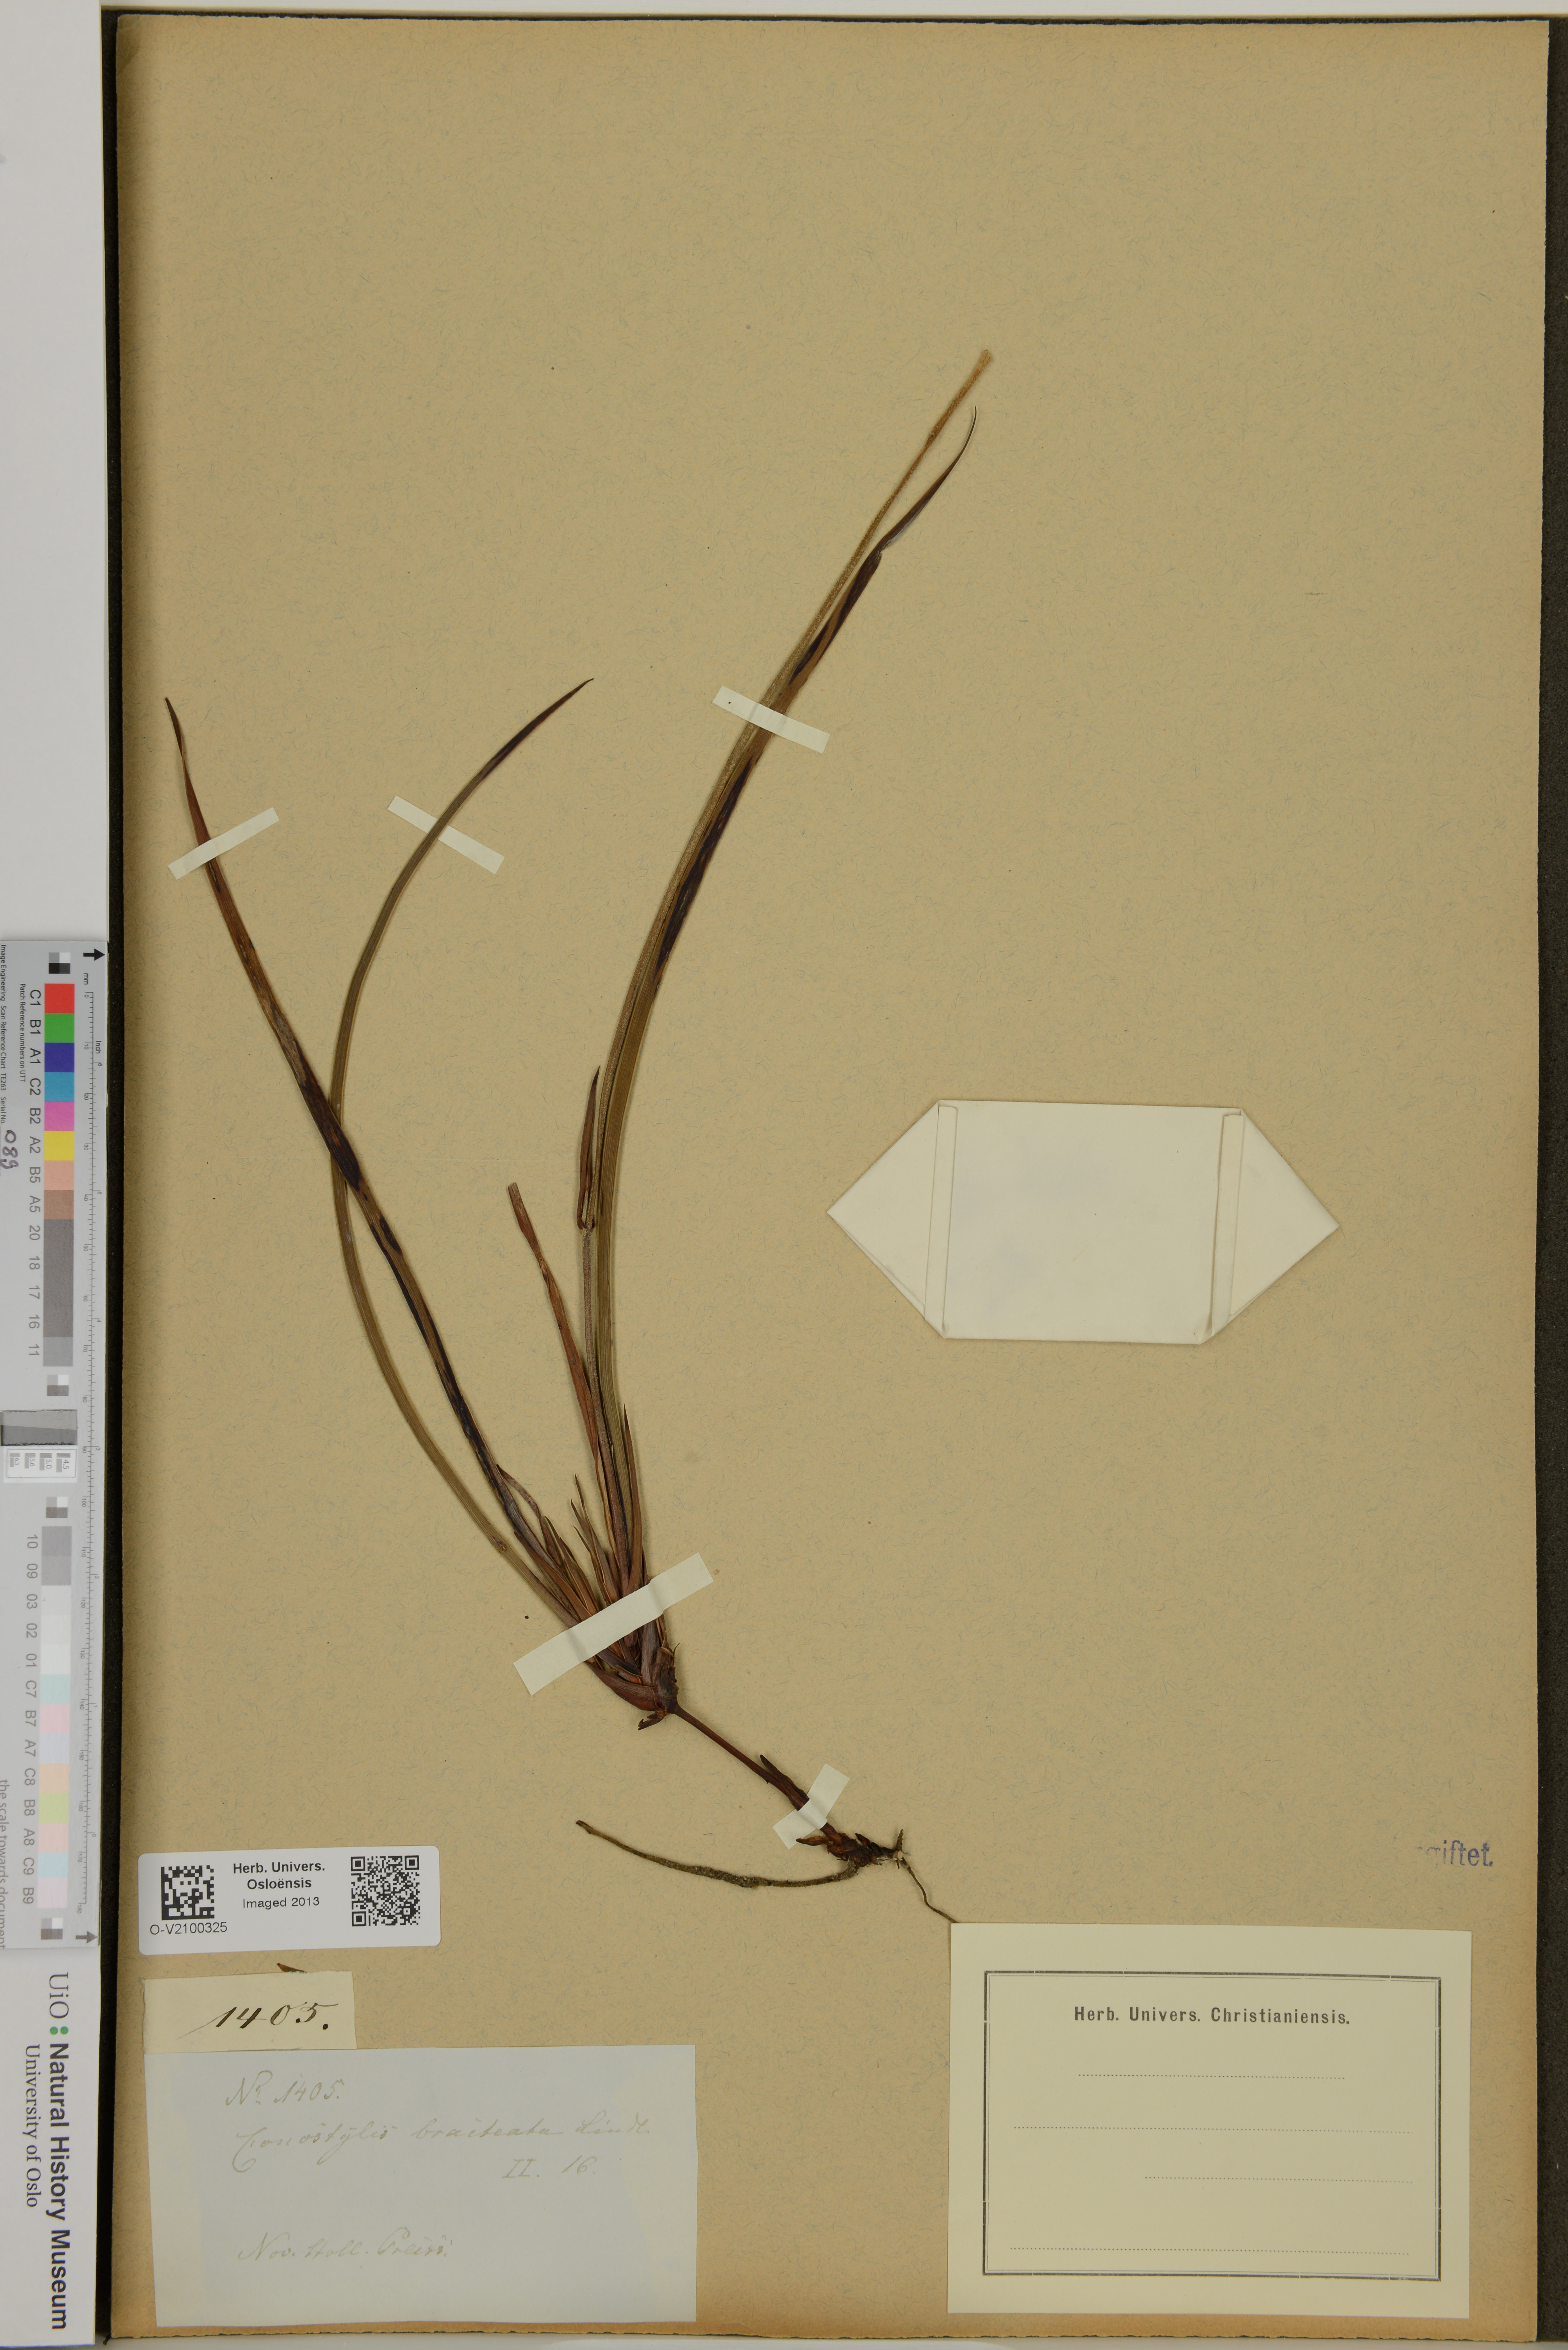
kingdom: Plantae
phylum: Tracheophyta
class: Liliopsida
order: Commelinales
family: Haemodoraceae
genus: Conostylis
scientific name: Conostylis bracteata
